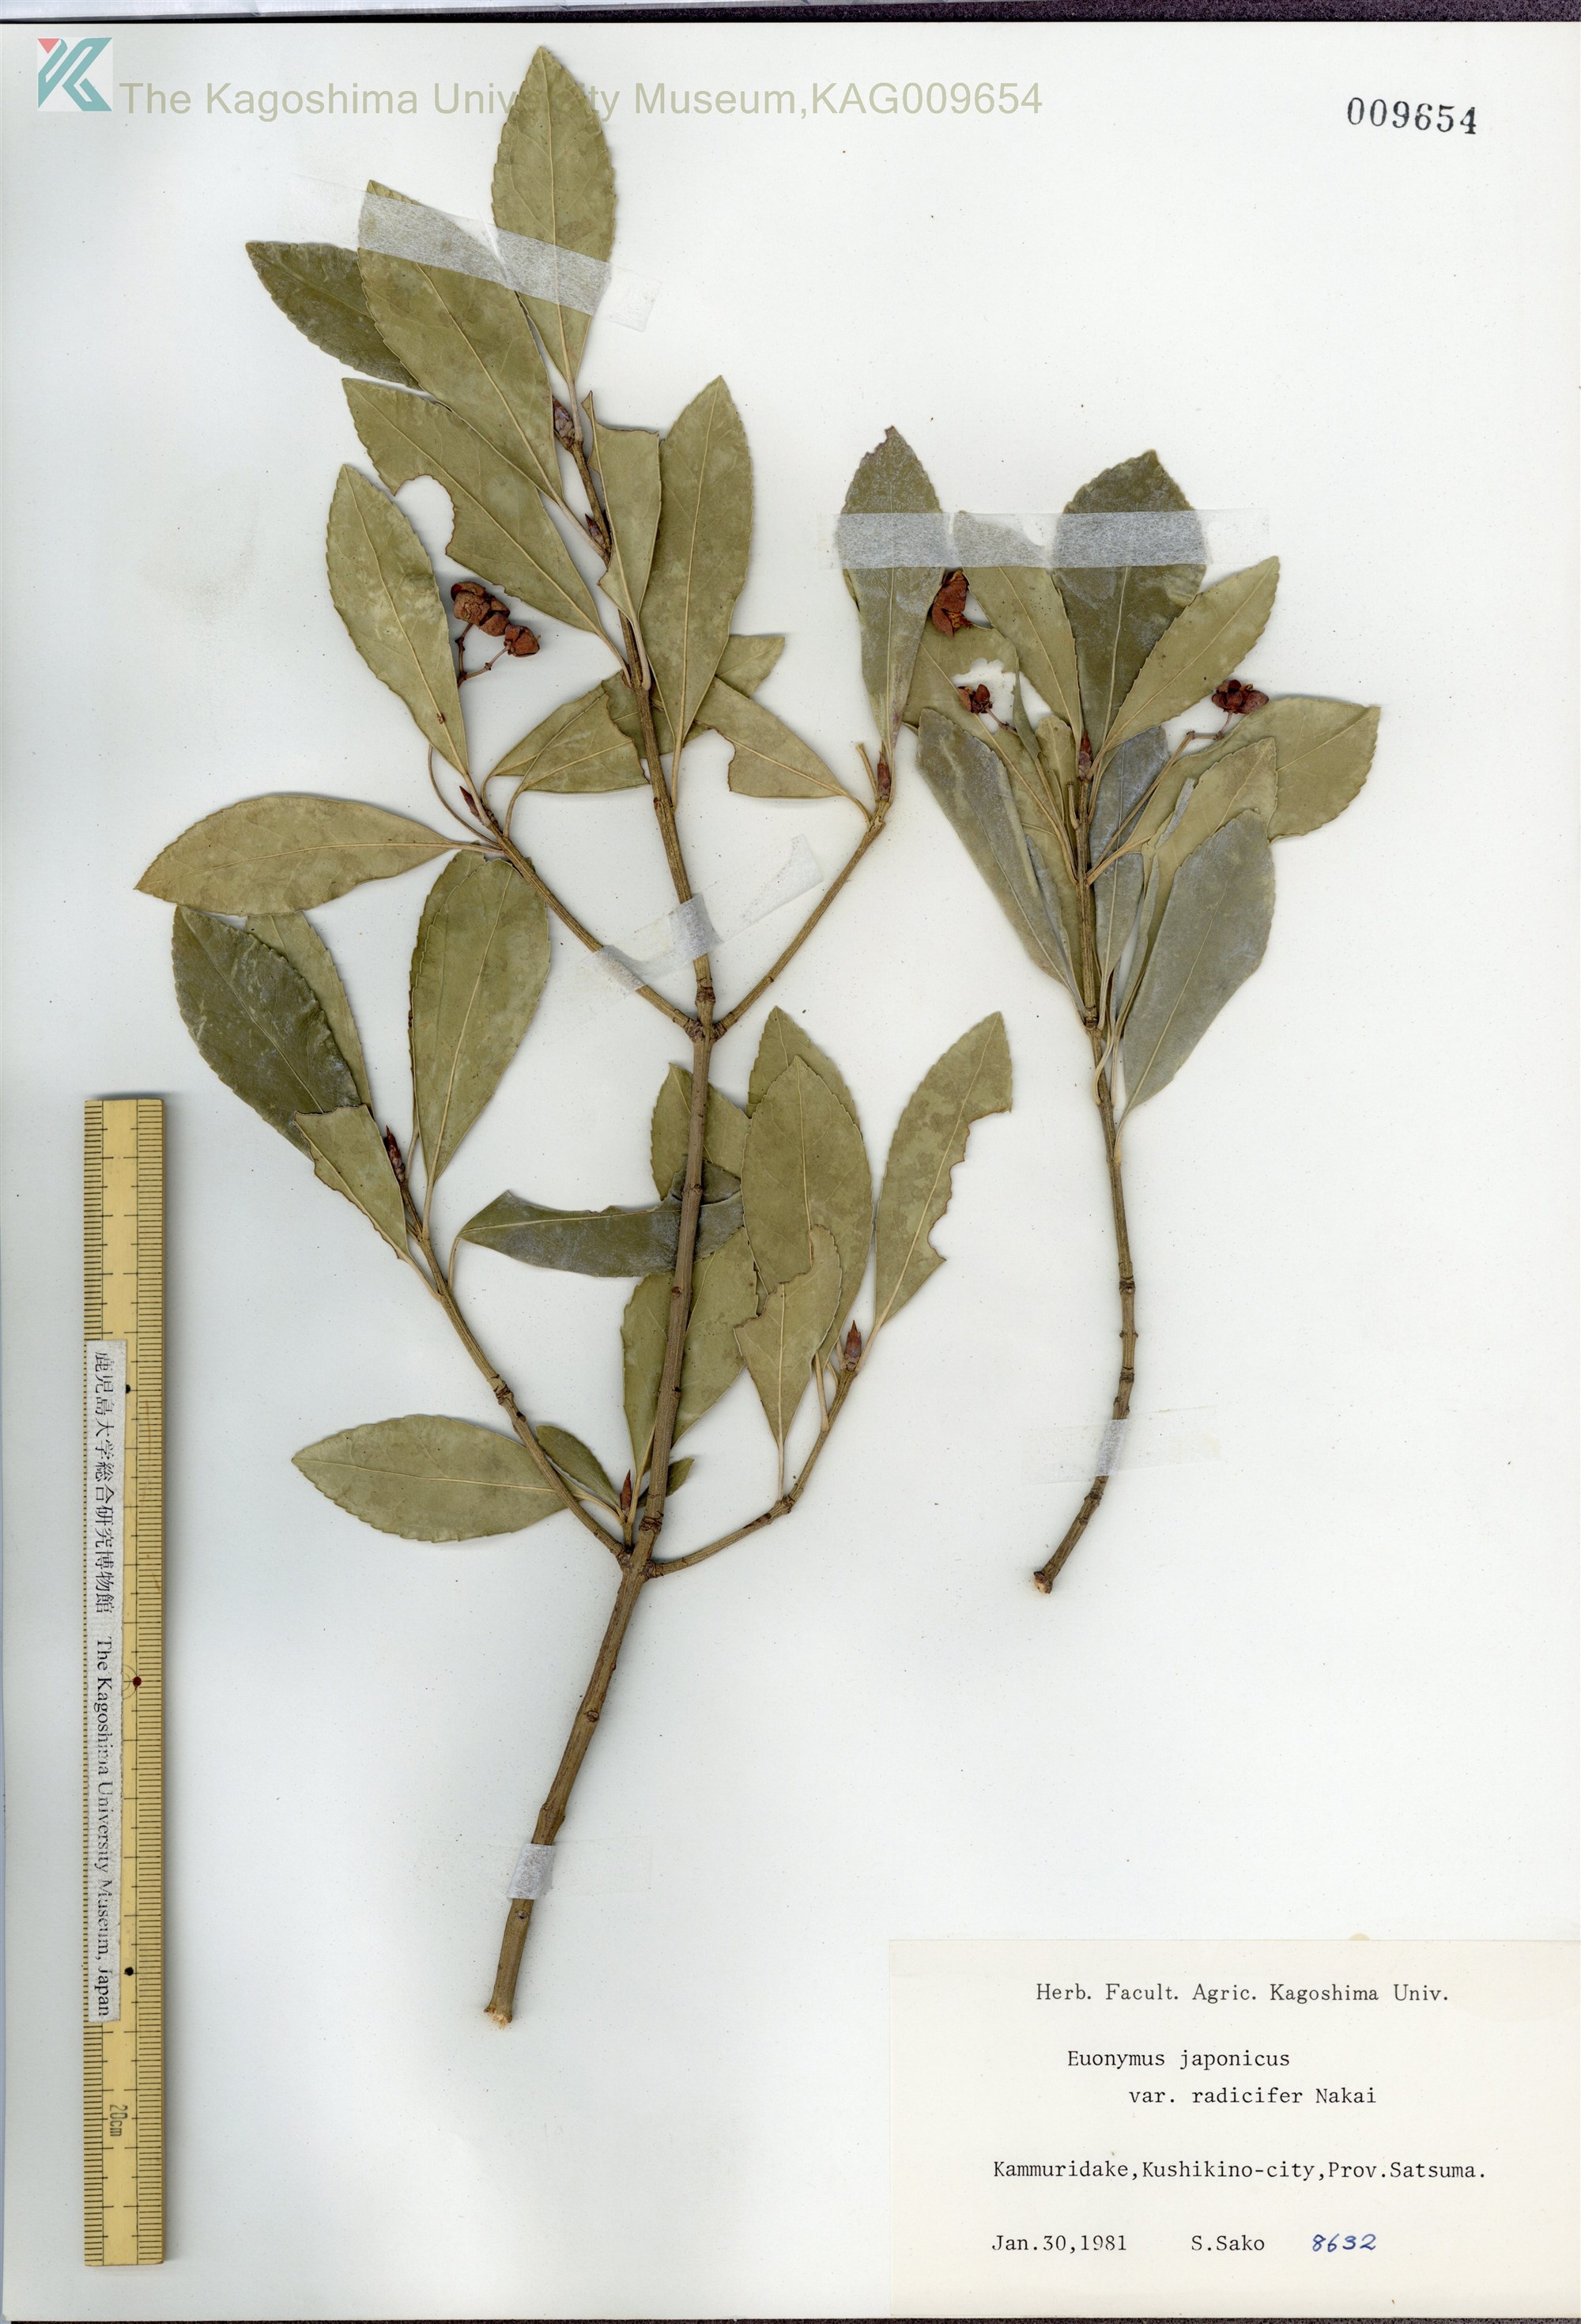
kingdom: Plantae
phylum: Tracheophyta
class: Magnoliopsida
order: Celastrales
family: Celastraceae
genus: Euonymus
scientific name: Euonymus japonicus
